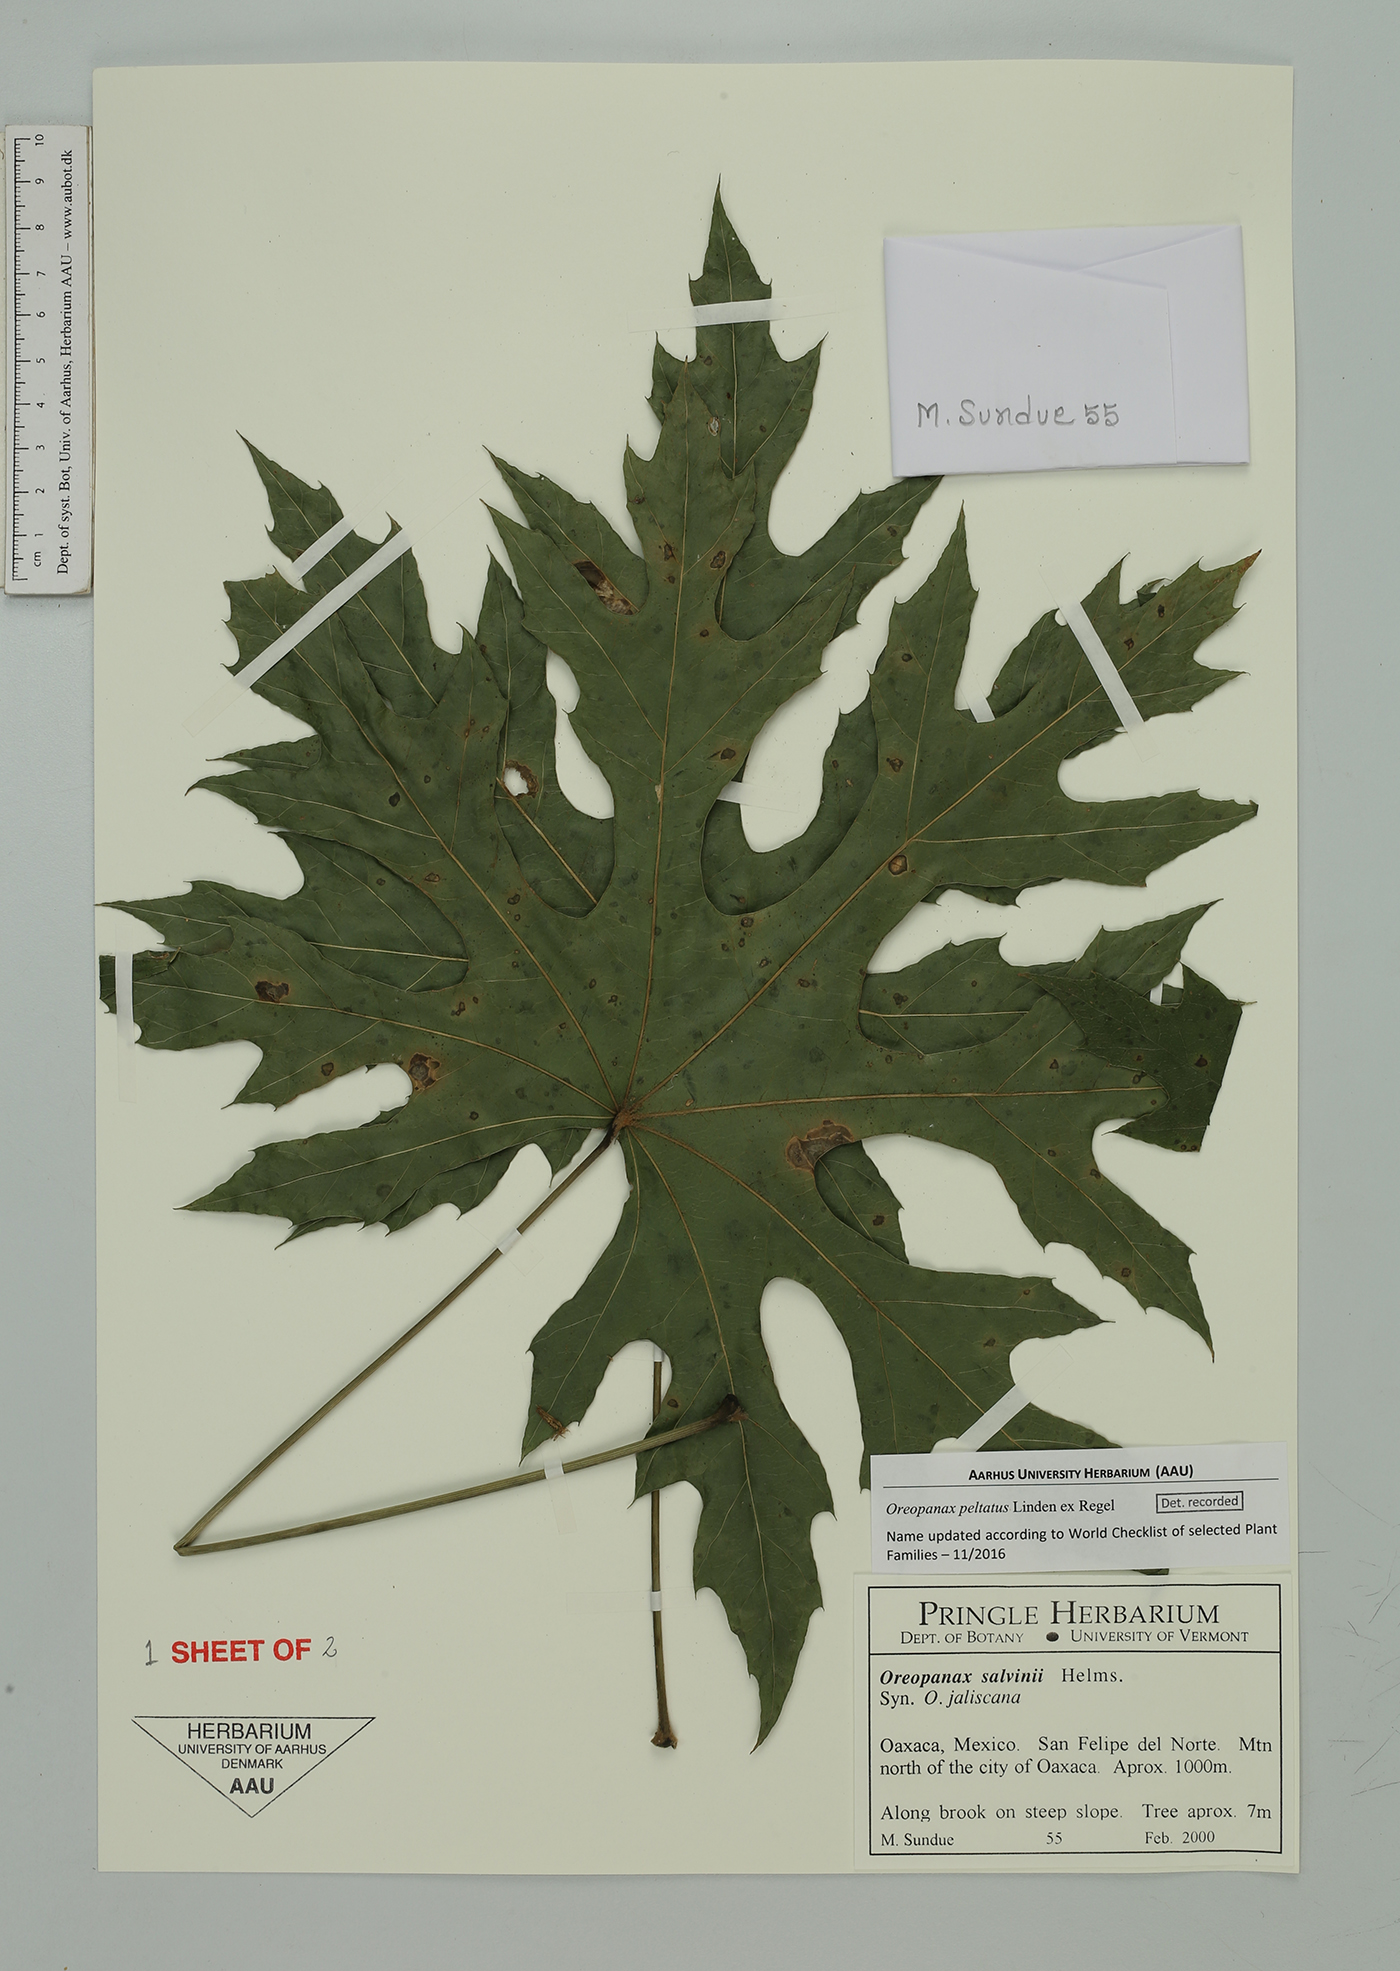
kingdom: Plantae
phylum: Tracheophyta
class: Magnoliopsida
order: Apiales
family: Araliaceae
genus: Oreopanax
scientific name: Oreopanax peltatus
